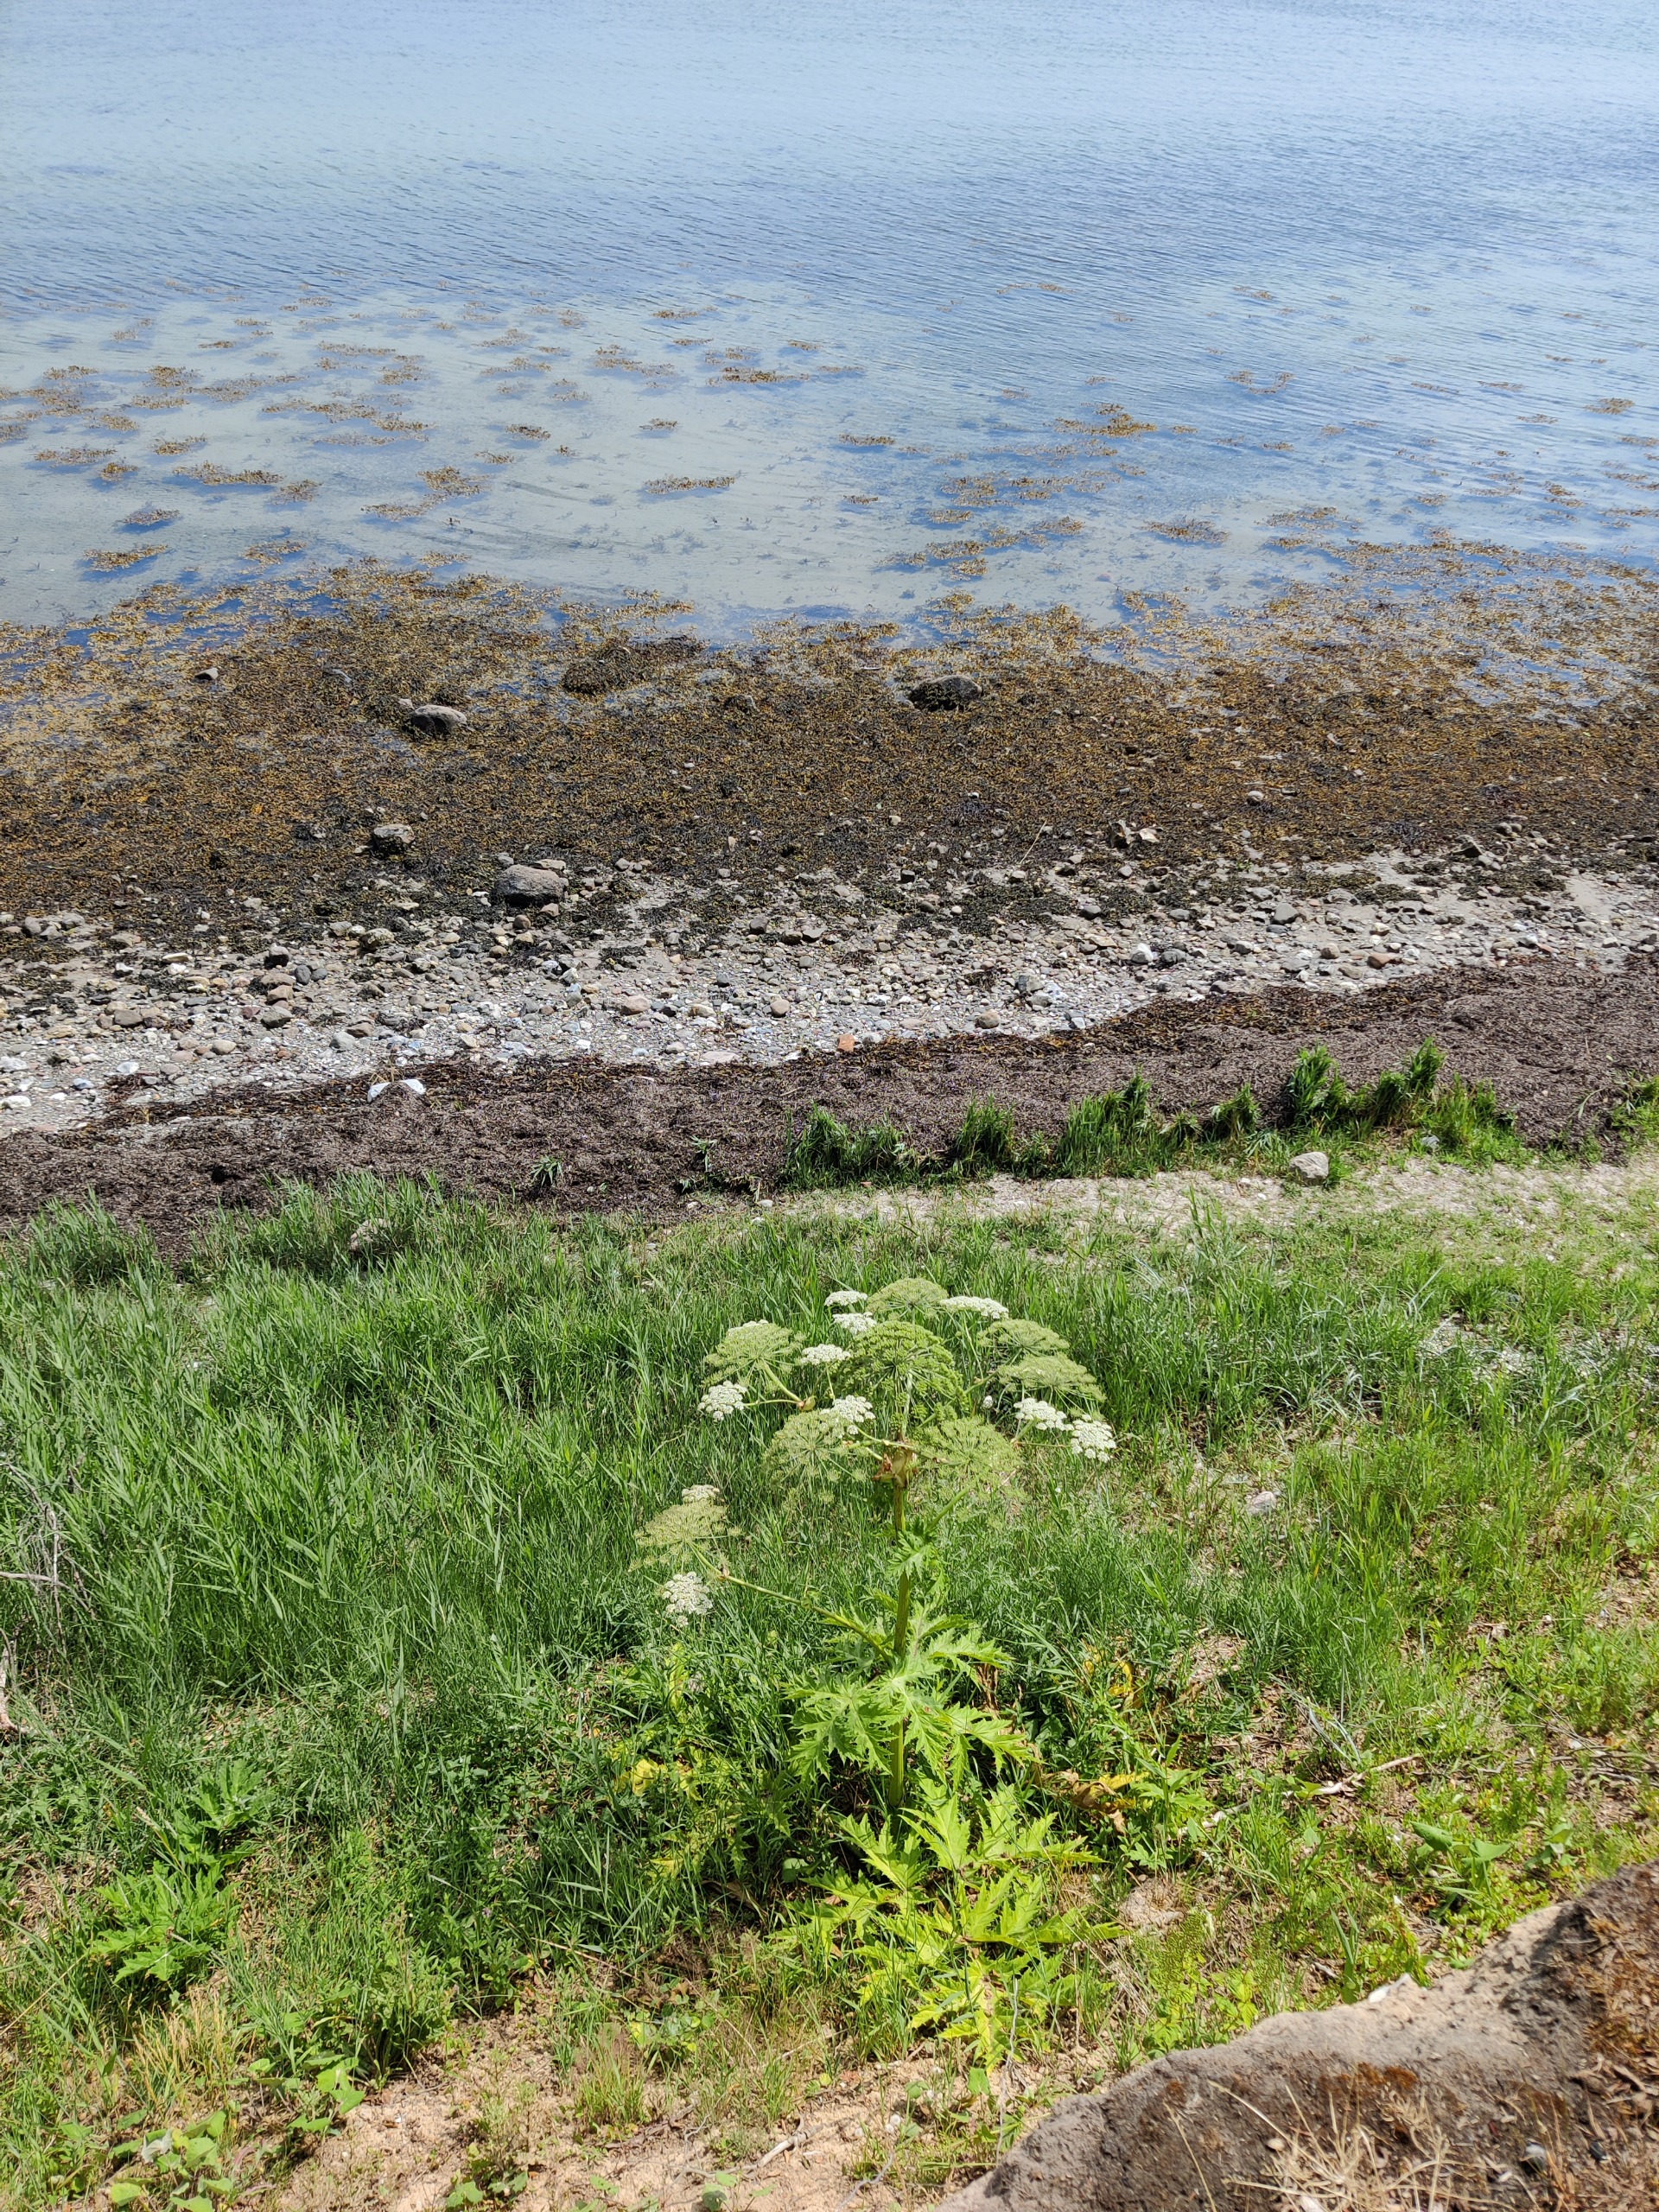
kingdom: Plantae
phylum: Tracheophyta
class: Magnoliopsida
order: Apiales
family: Apiaceae
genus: Heracleum
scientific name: Heracleum mantegazzianum
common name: Kæmpe-bjørneklo
